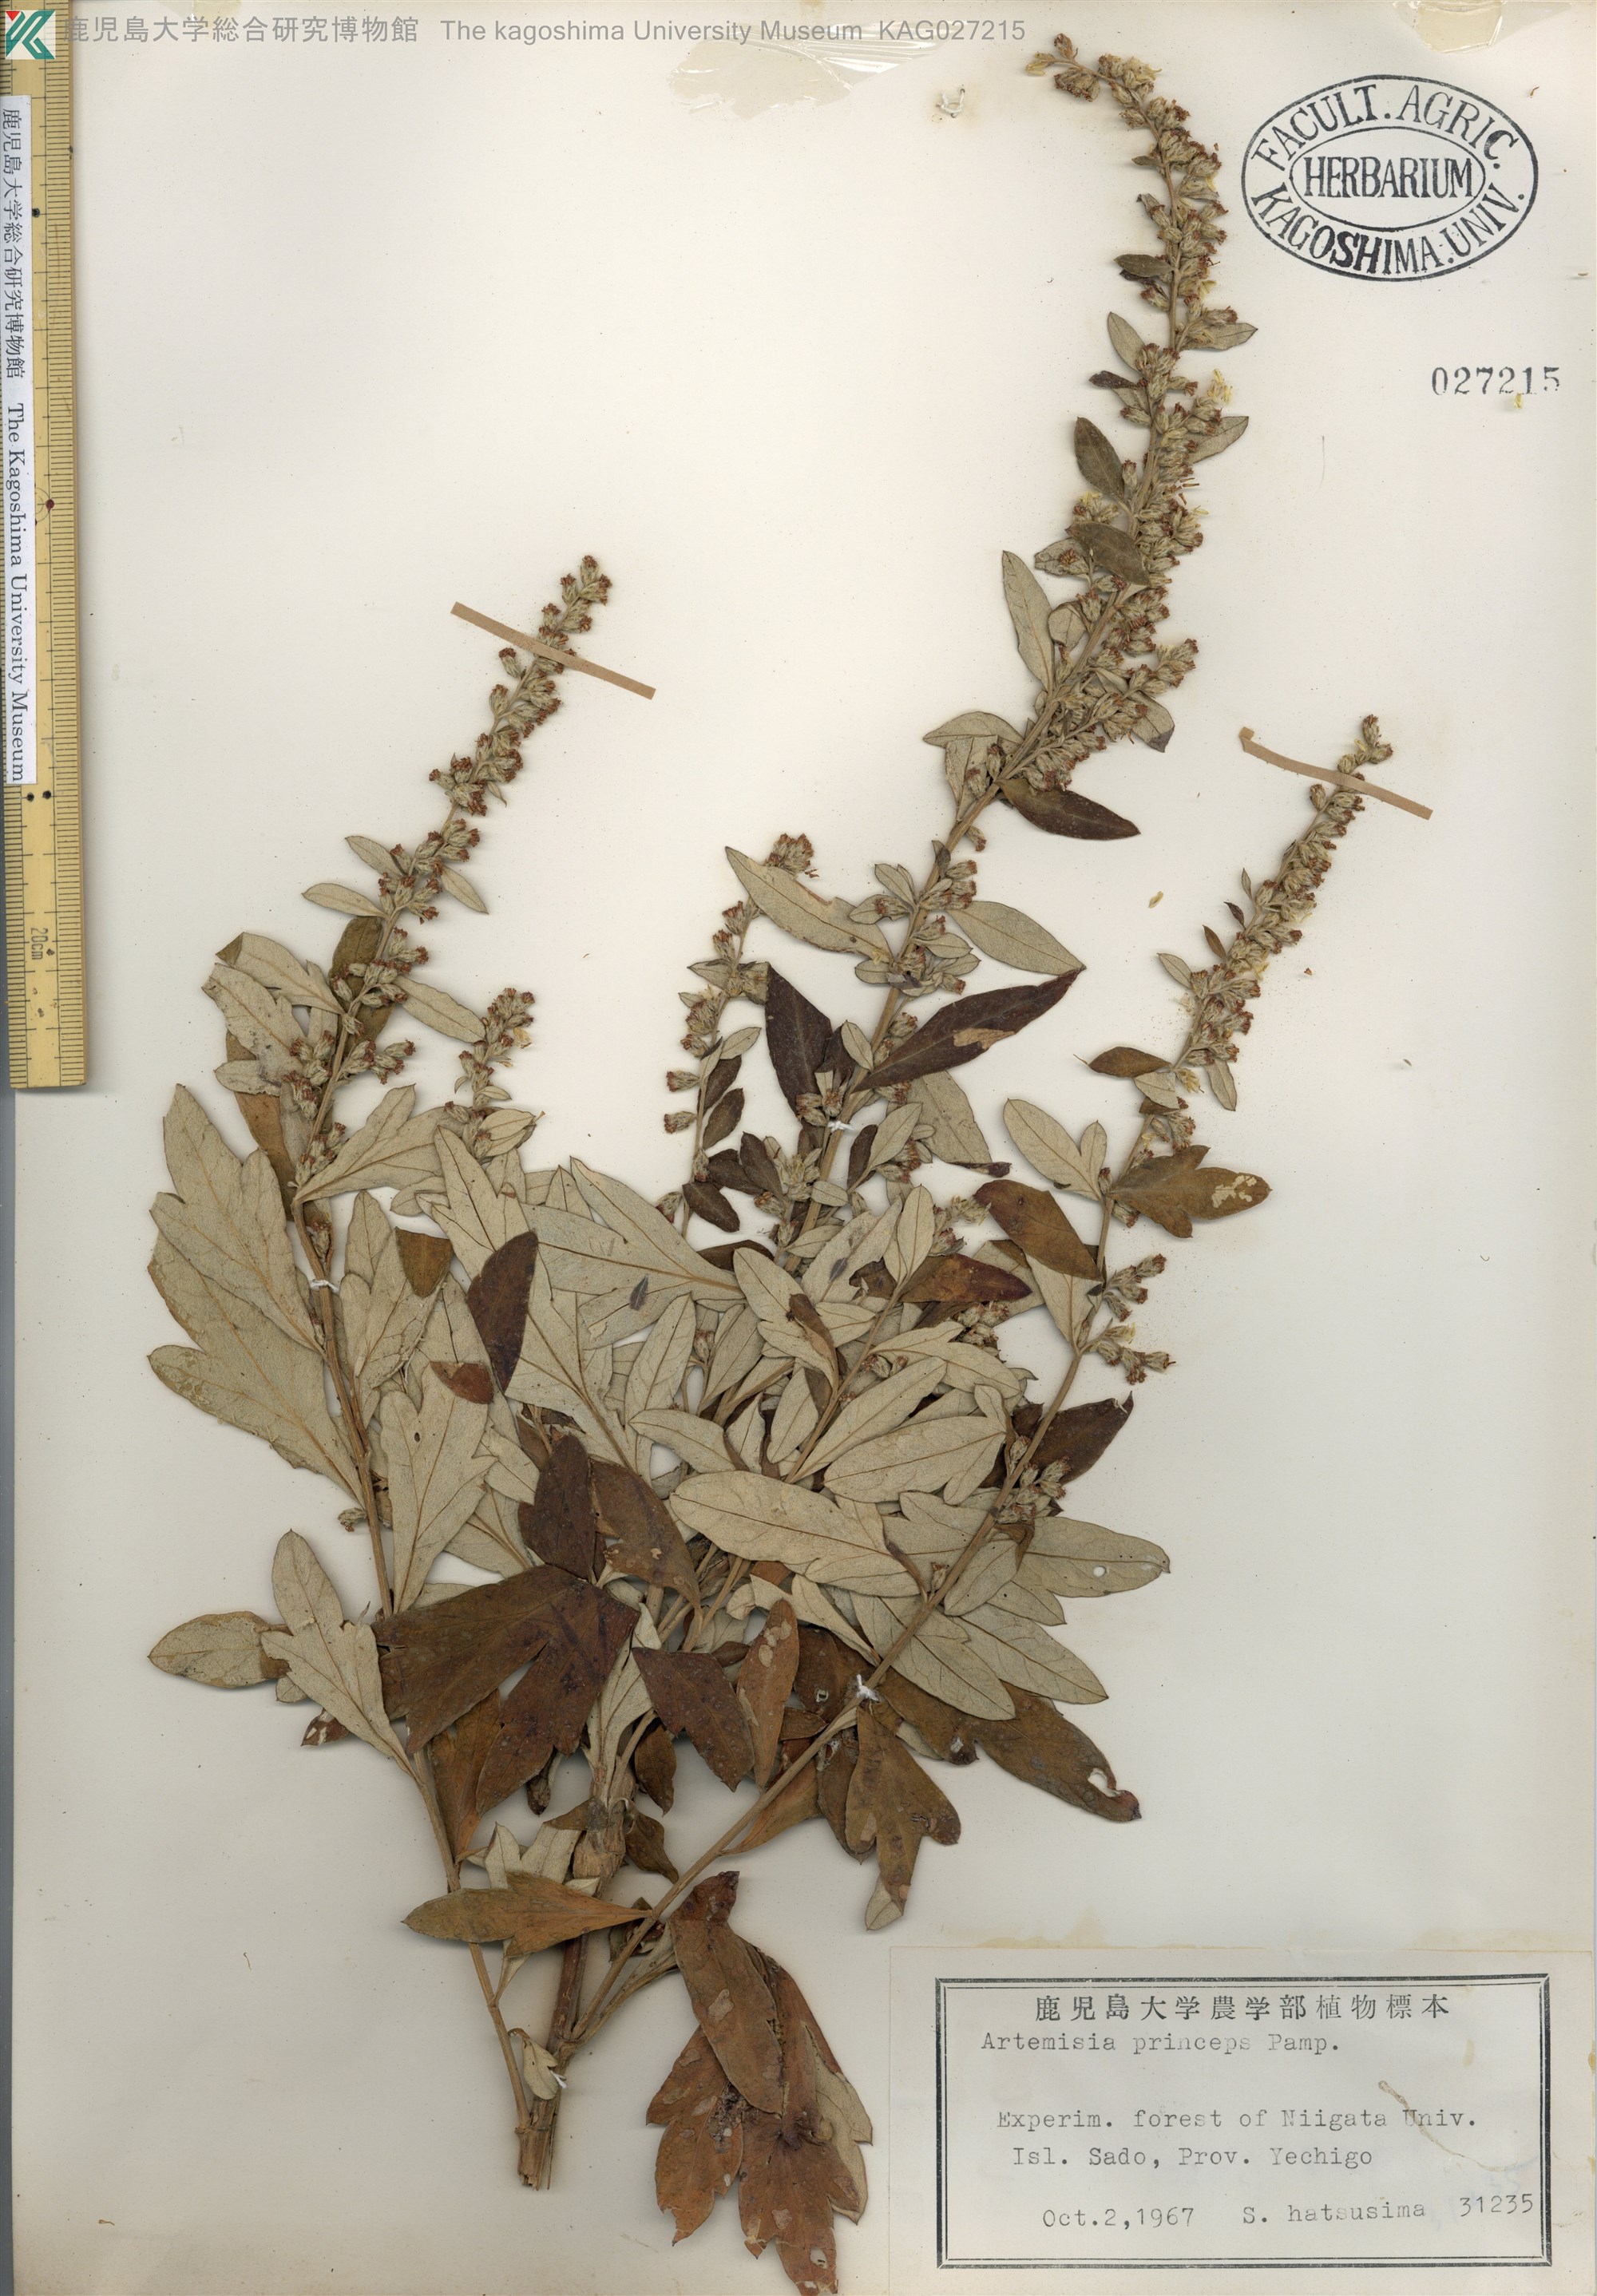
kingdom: Plantae
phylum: Tracheophyta
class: Magnoliopsida
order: Asterales
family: Asteraceae
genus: Artemisia
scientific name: Artemisia montana
